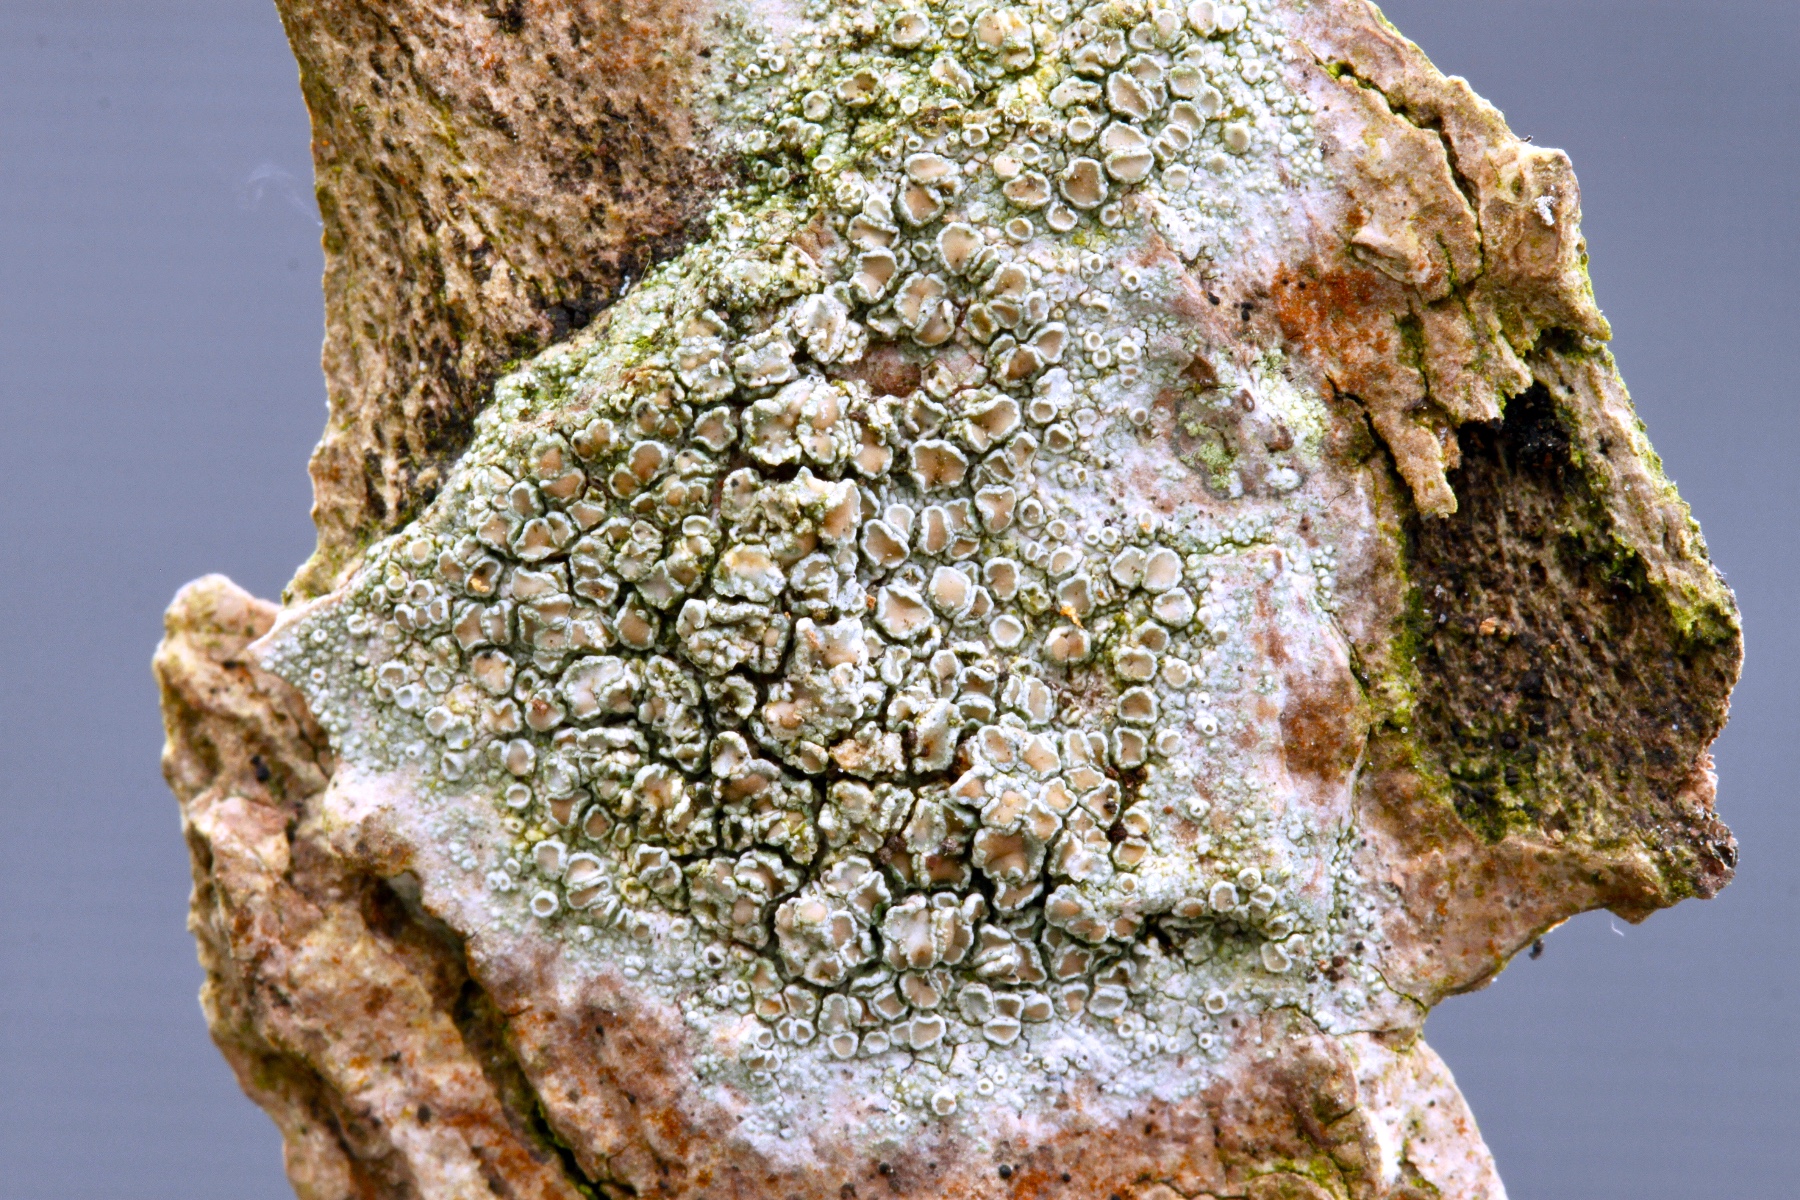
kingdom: Fungi
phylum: Ascomycota
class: Lecanoromycetes
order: Lecanorales
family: Lecanoraceae
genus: Lecanora
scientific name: Lecanora chlarotera
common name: brun kantskivelav
